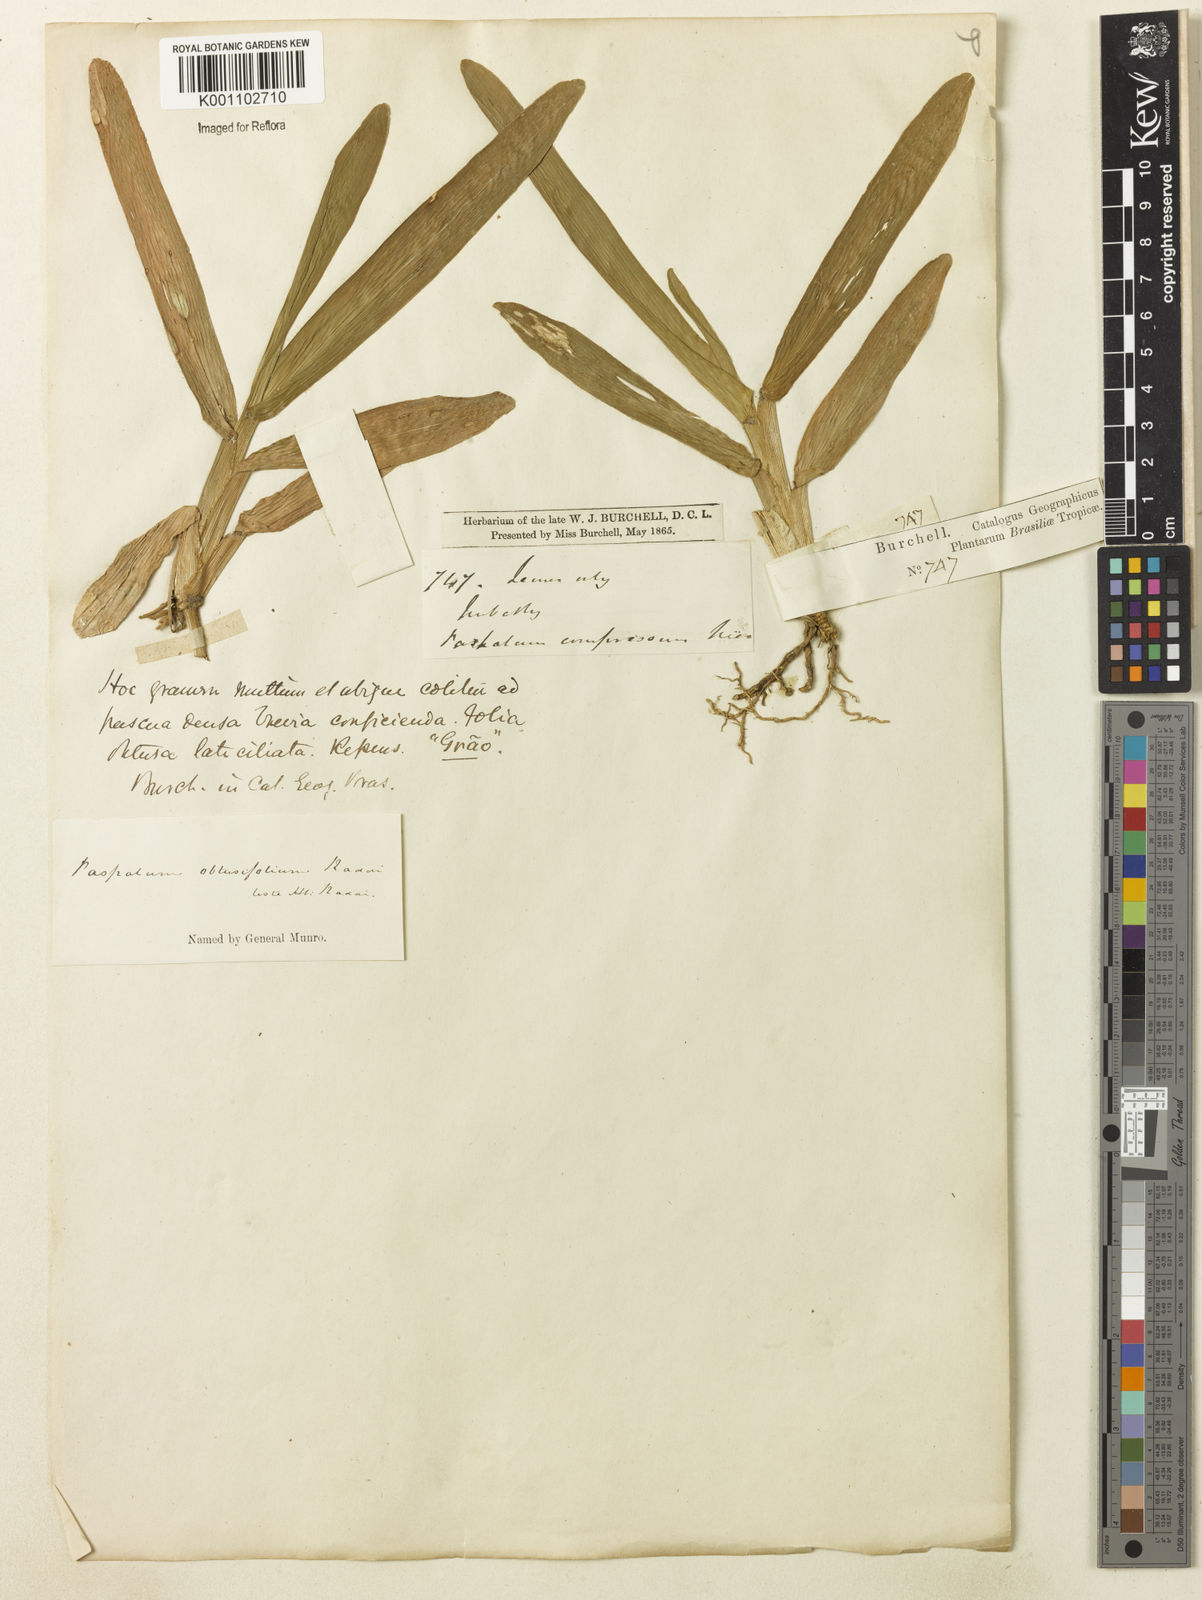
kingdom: Plantae
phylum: Tracheophyta
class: Liliopsida
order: Poales
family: Poaceae
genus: Axonopus
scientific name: Axonopus furcatus
